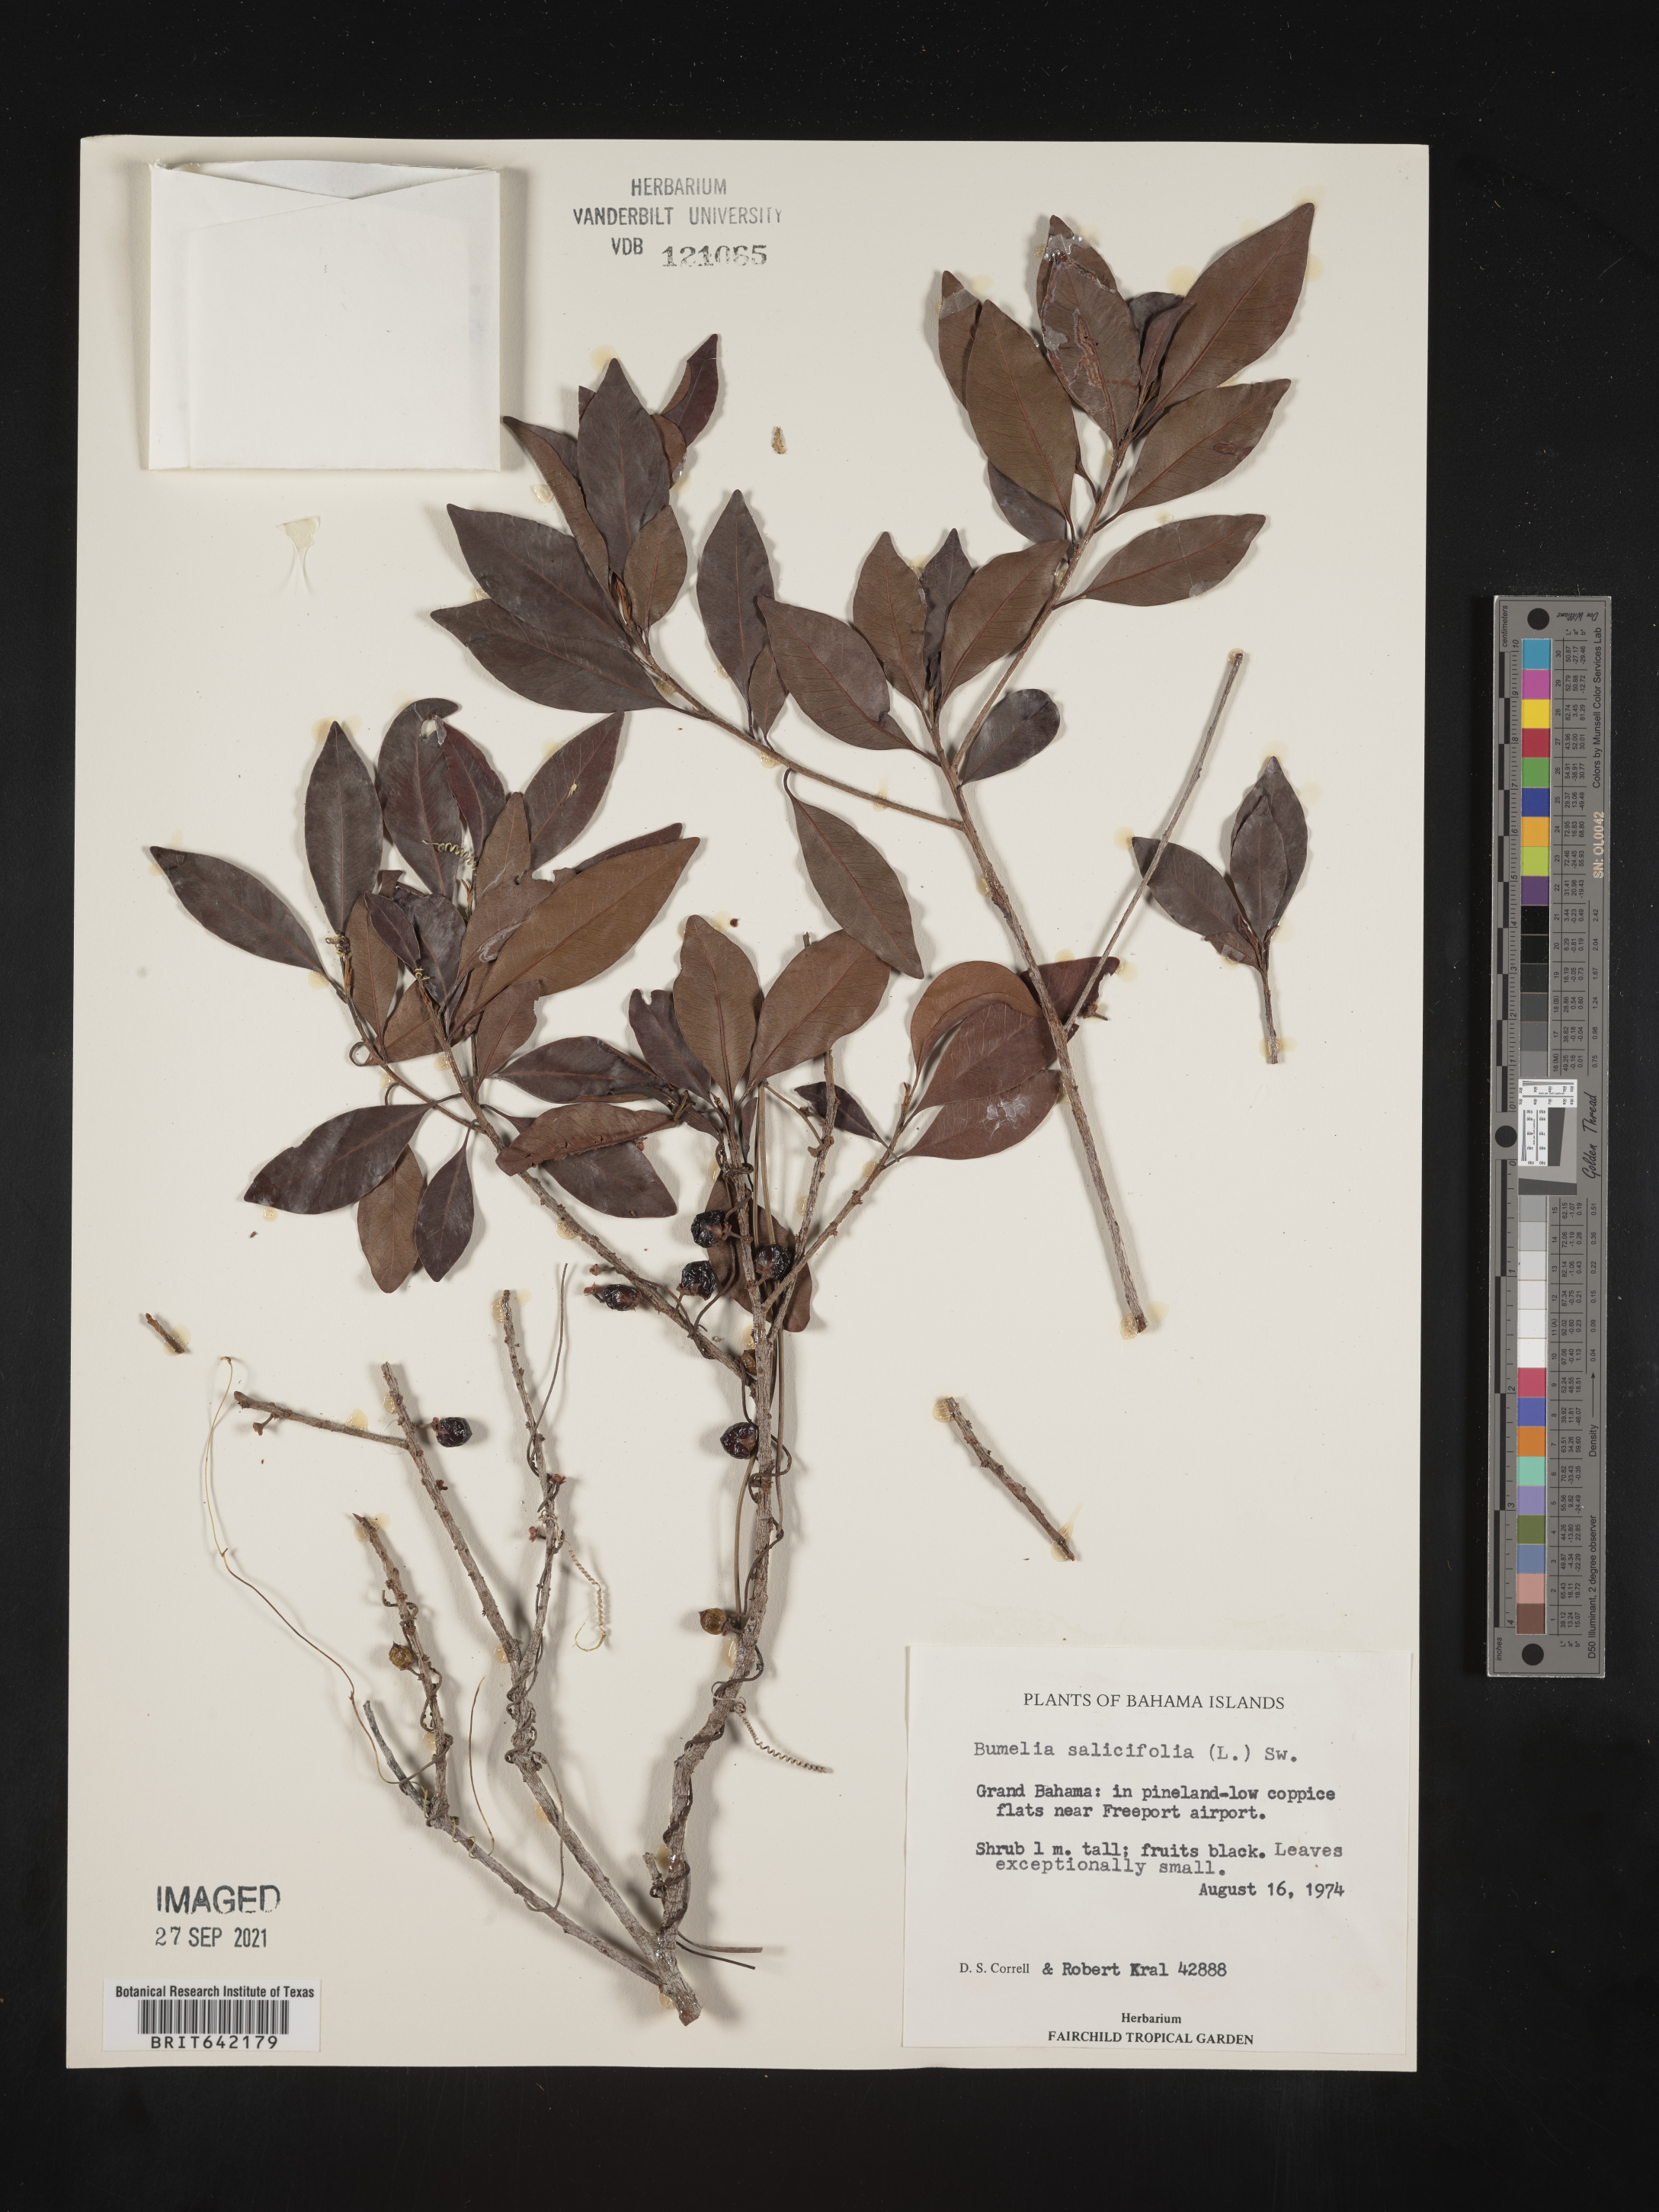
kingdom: Plantae
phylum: Tracheophyta
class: Magnoliopsida
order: Ericales
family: Sapotaceae
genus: Sideroxylon
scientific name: Sideroxylon
